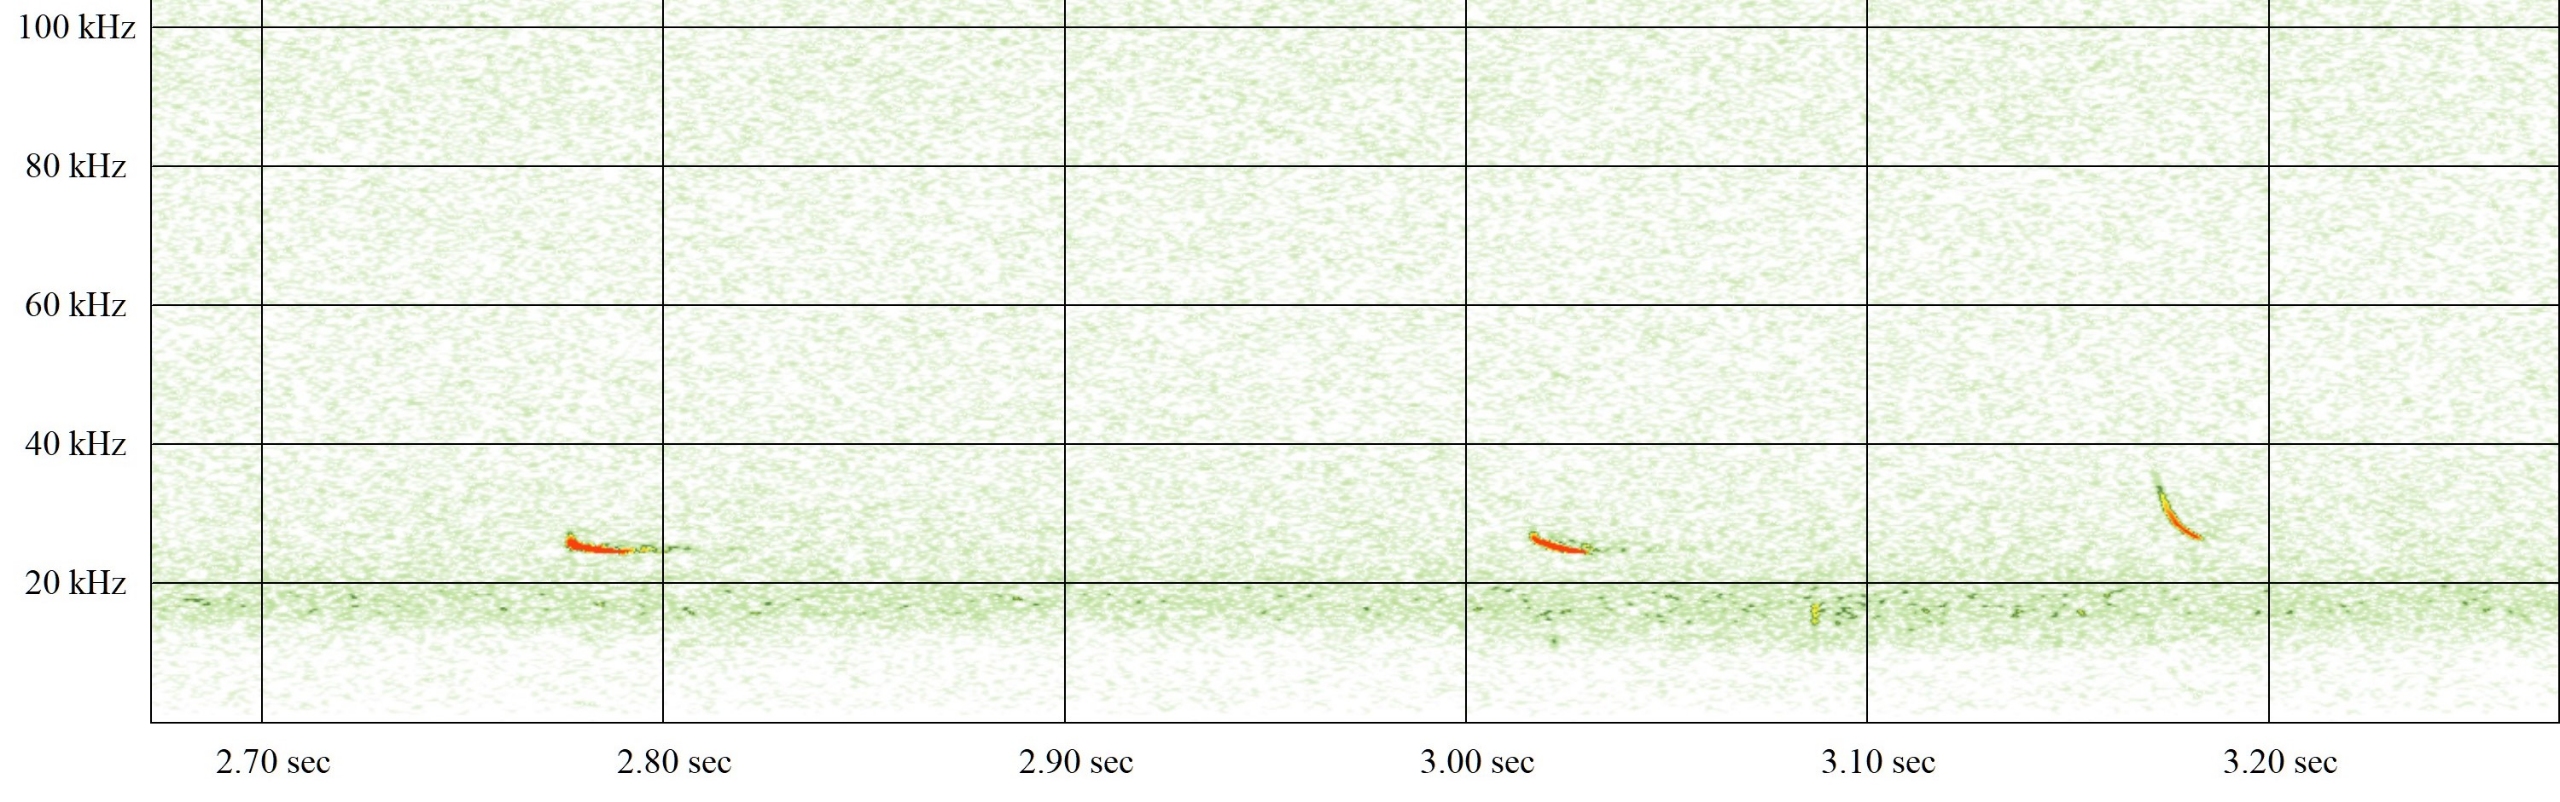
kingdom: Animalia
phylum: Chordata
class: Mammalia
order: Chiroptera
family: Vespertilionidae
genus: Nyctalus
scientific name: Nyctalus noctula
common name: Brunflagermus
